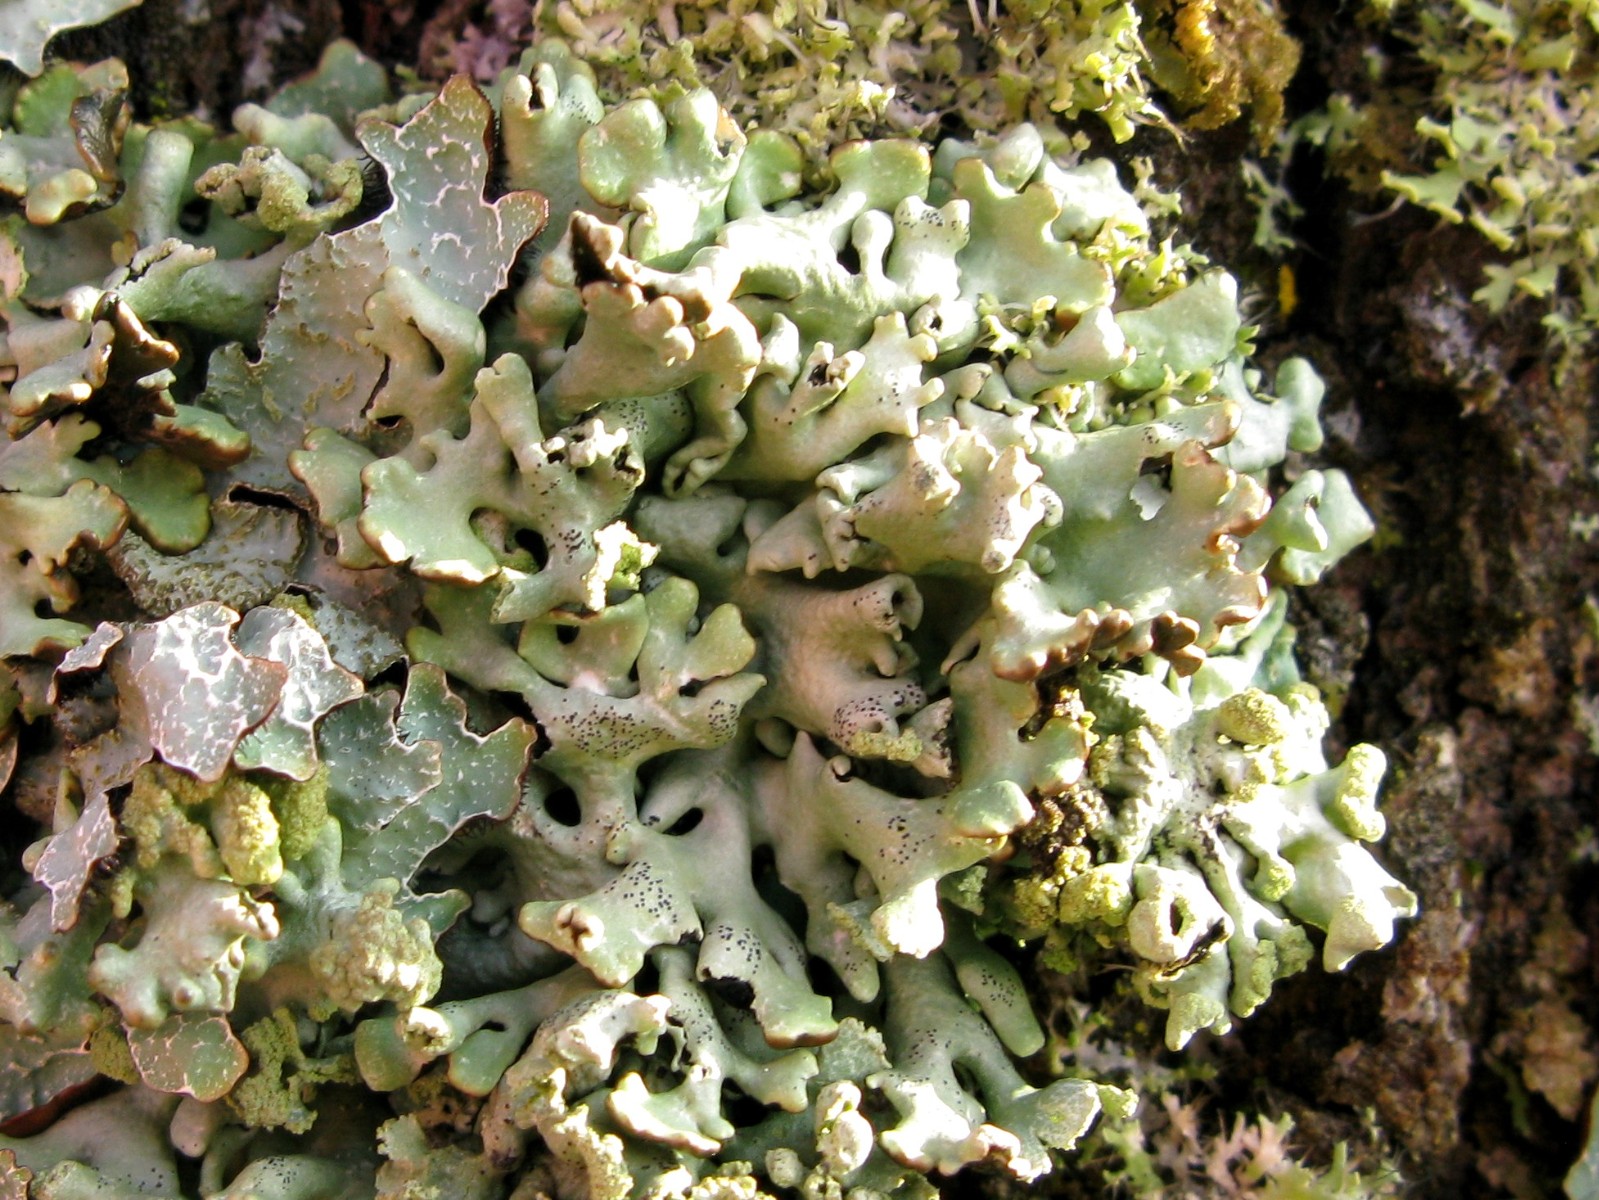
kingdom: Fungi
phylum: Ascomycota
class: Lecanoromycetes
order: Lecanorales
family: Parmeliaceae
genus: Hypogymnia
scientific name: Hypogymnia physodes
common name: almindelig kvistlav
